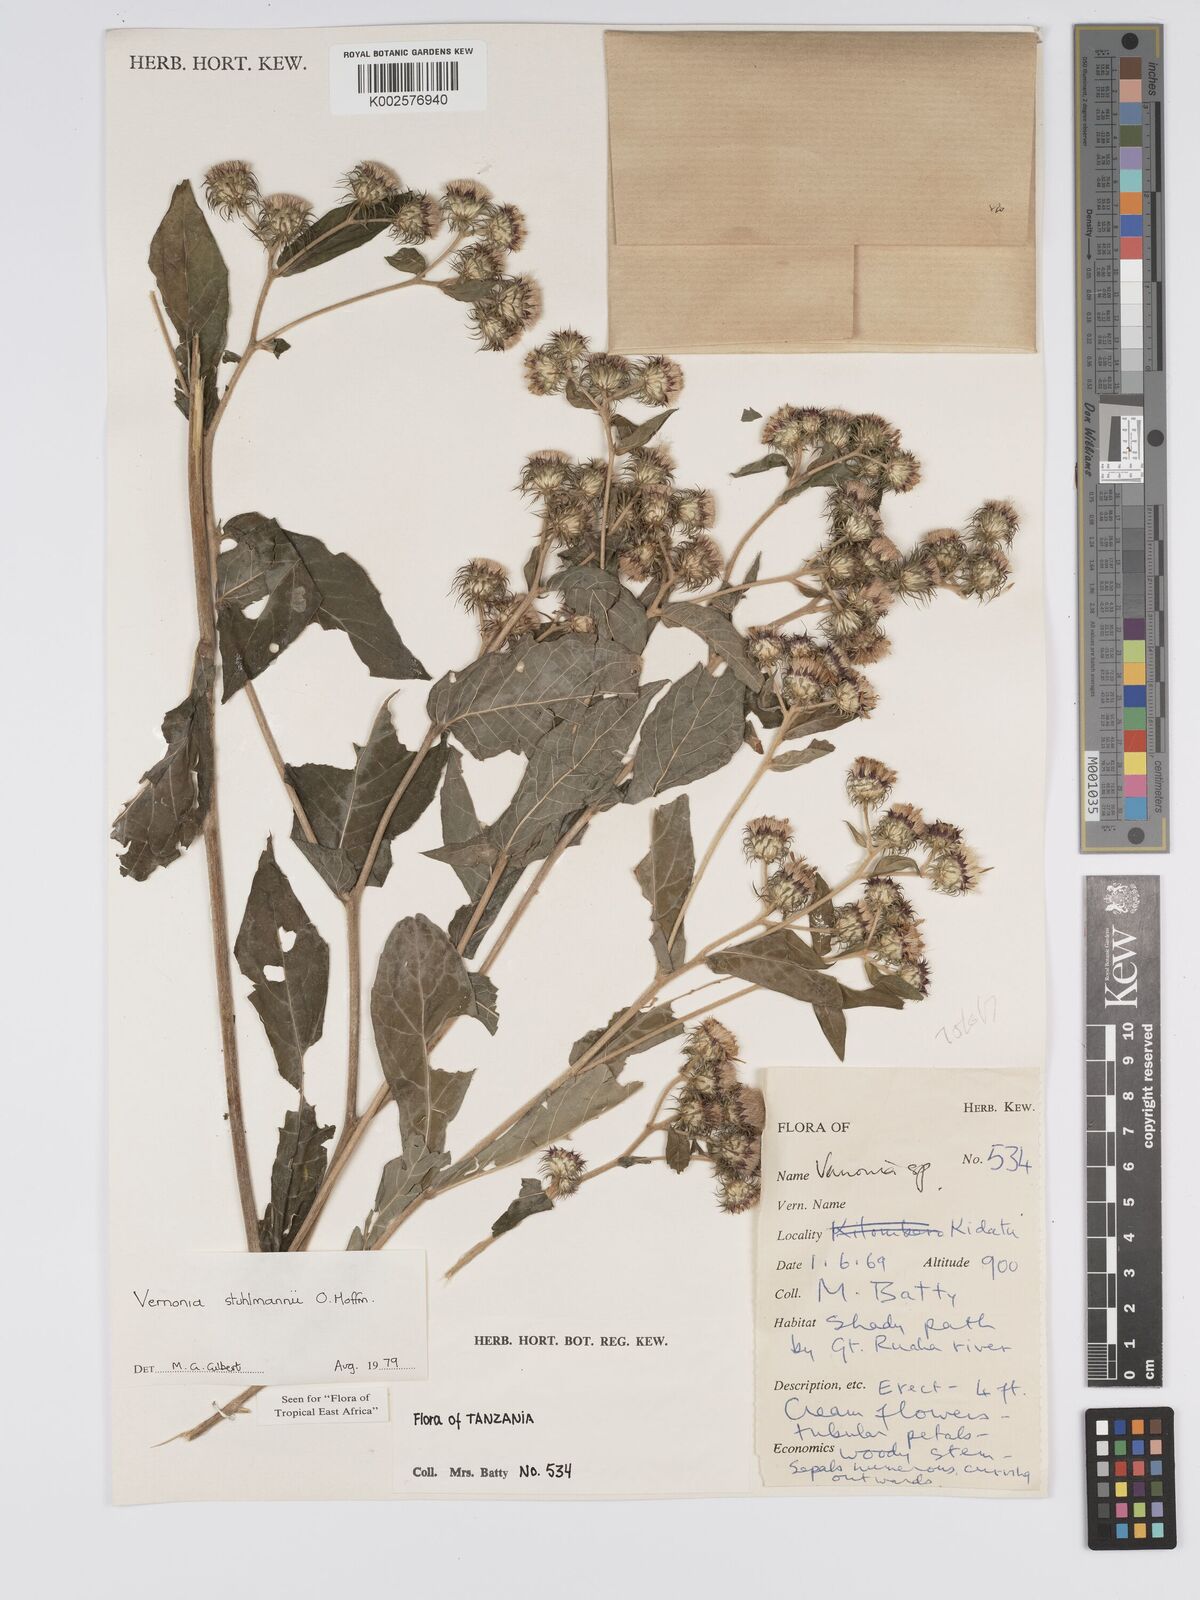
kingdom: Plantae
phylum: Tracheophyta
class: Magnoliopsida
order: Asterales
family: Asteraceae
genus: Vernonia
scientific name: Vernonia stuhlmannii
